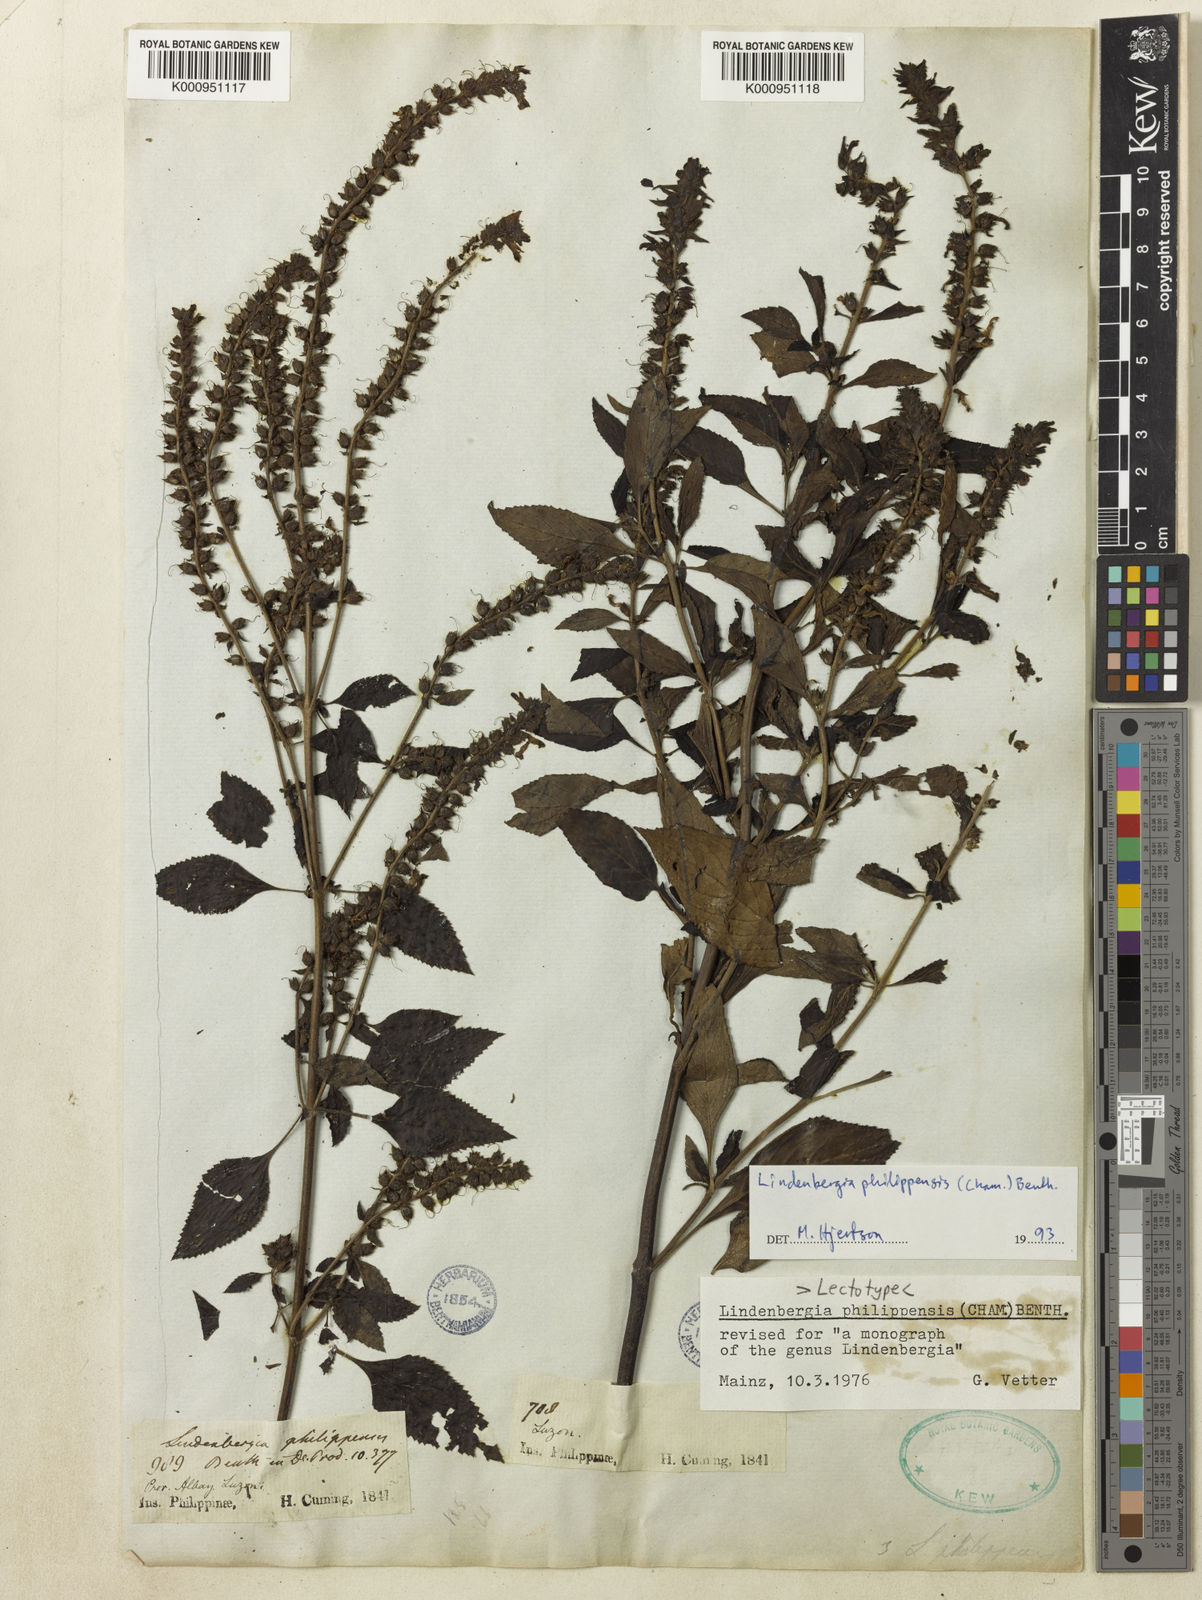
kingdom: Plantae
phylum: Tracheophyta
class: Magnoliopsida
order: Lamiales
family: Orobanchaceae
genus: Lindenbergia
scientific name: Lindenbergia philippensis
